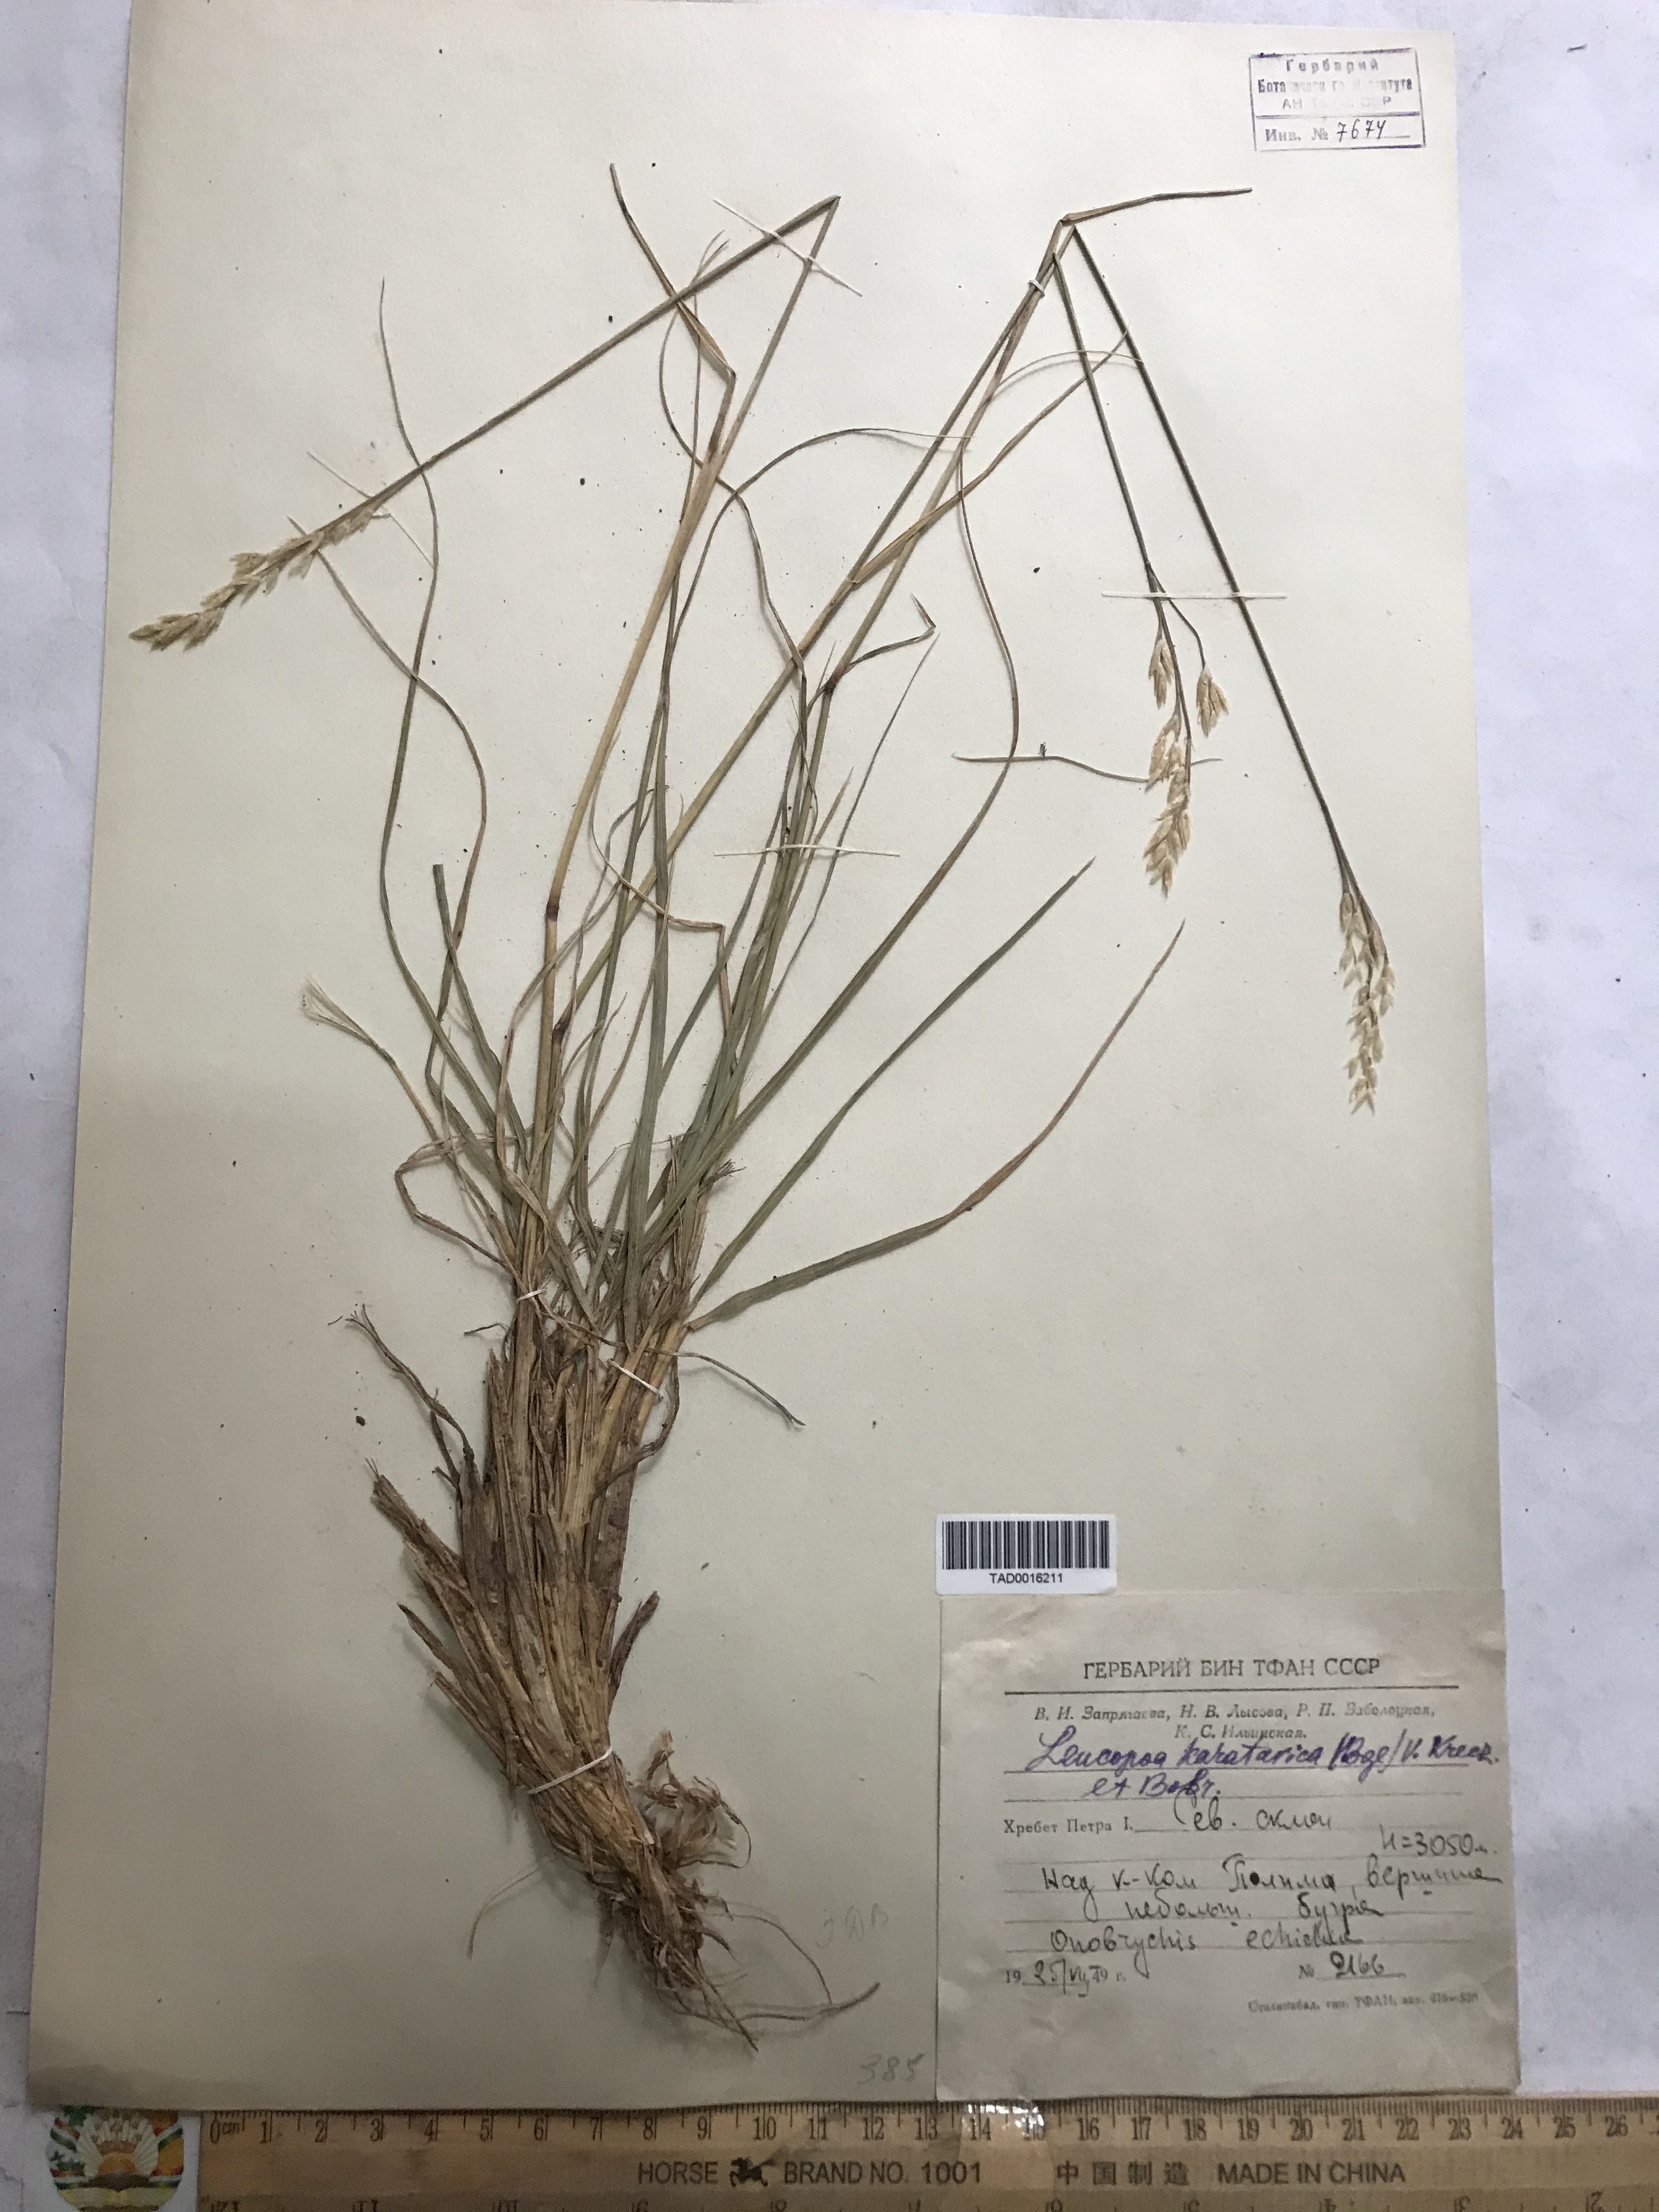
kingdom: Plantae
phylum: Tracheophyta
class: Liliopsida
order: Poales
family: Poaceae
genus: Festuca
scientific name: Festuca karatavica
